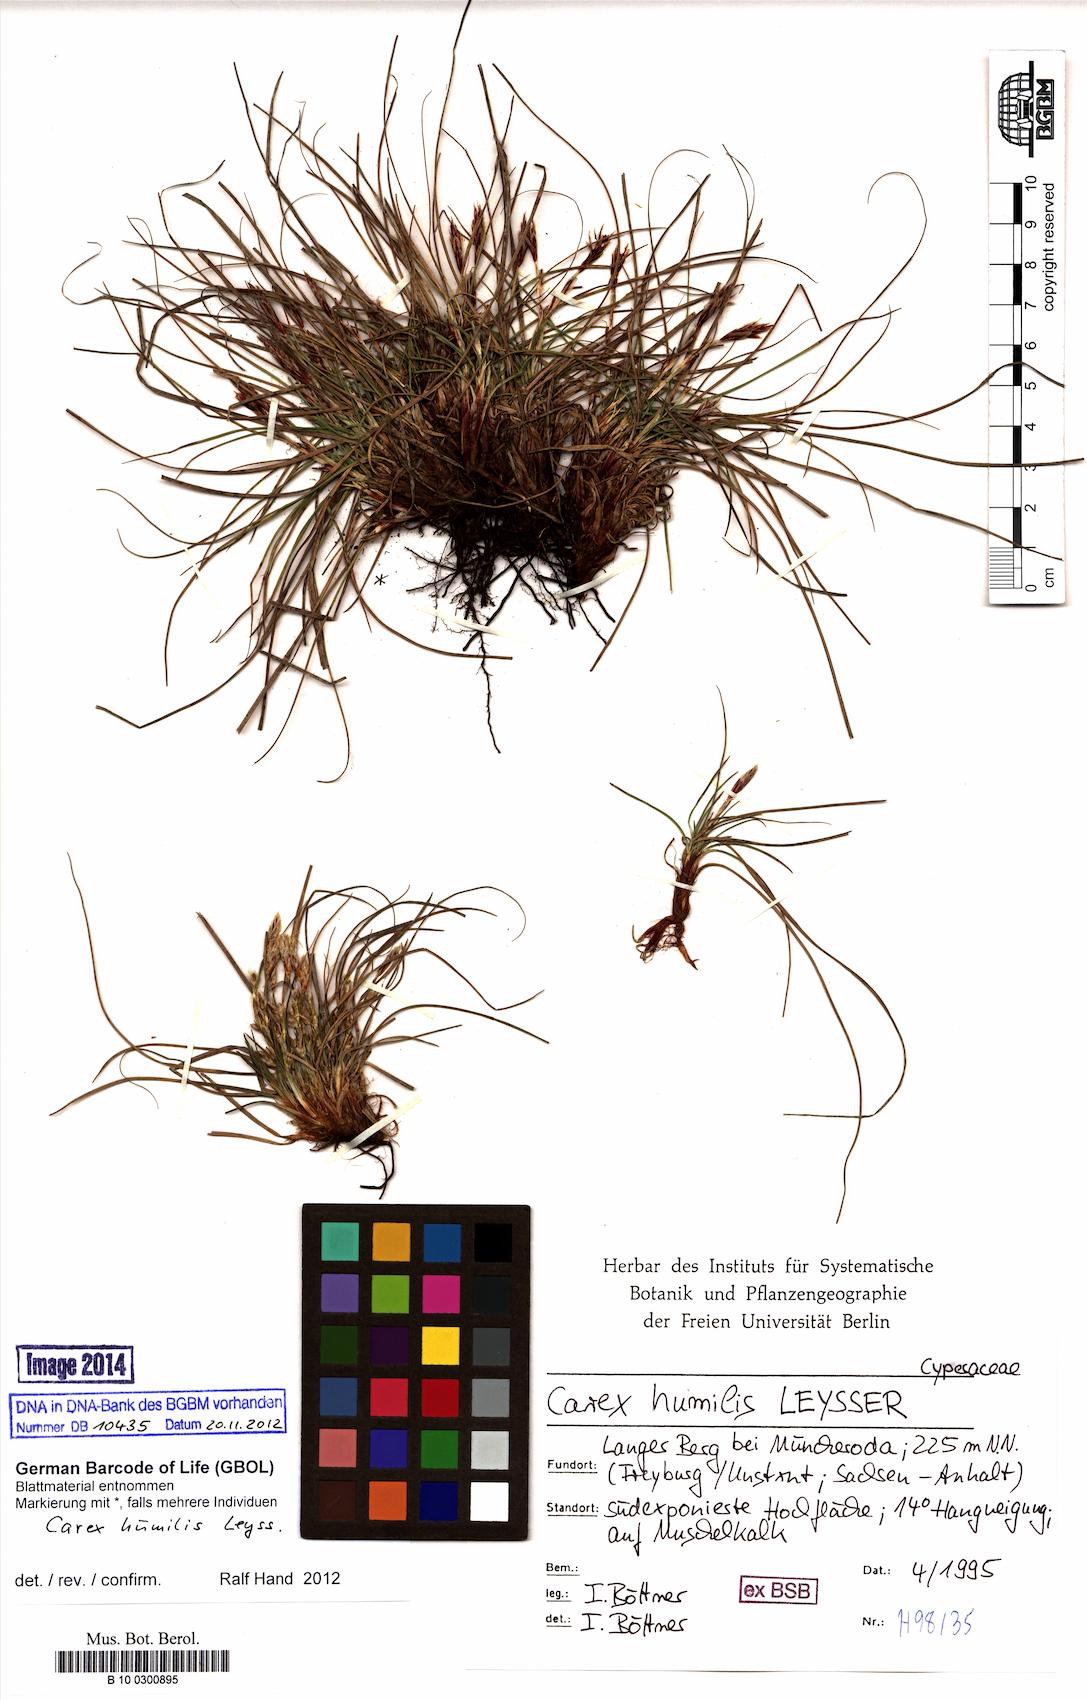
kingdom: Plantae
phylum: Tracheophyta
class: Liliopsida
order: Poales
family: Cyperaceae
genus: Carex
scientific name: Carex humilis
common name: Dwarf sedge
